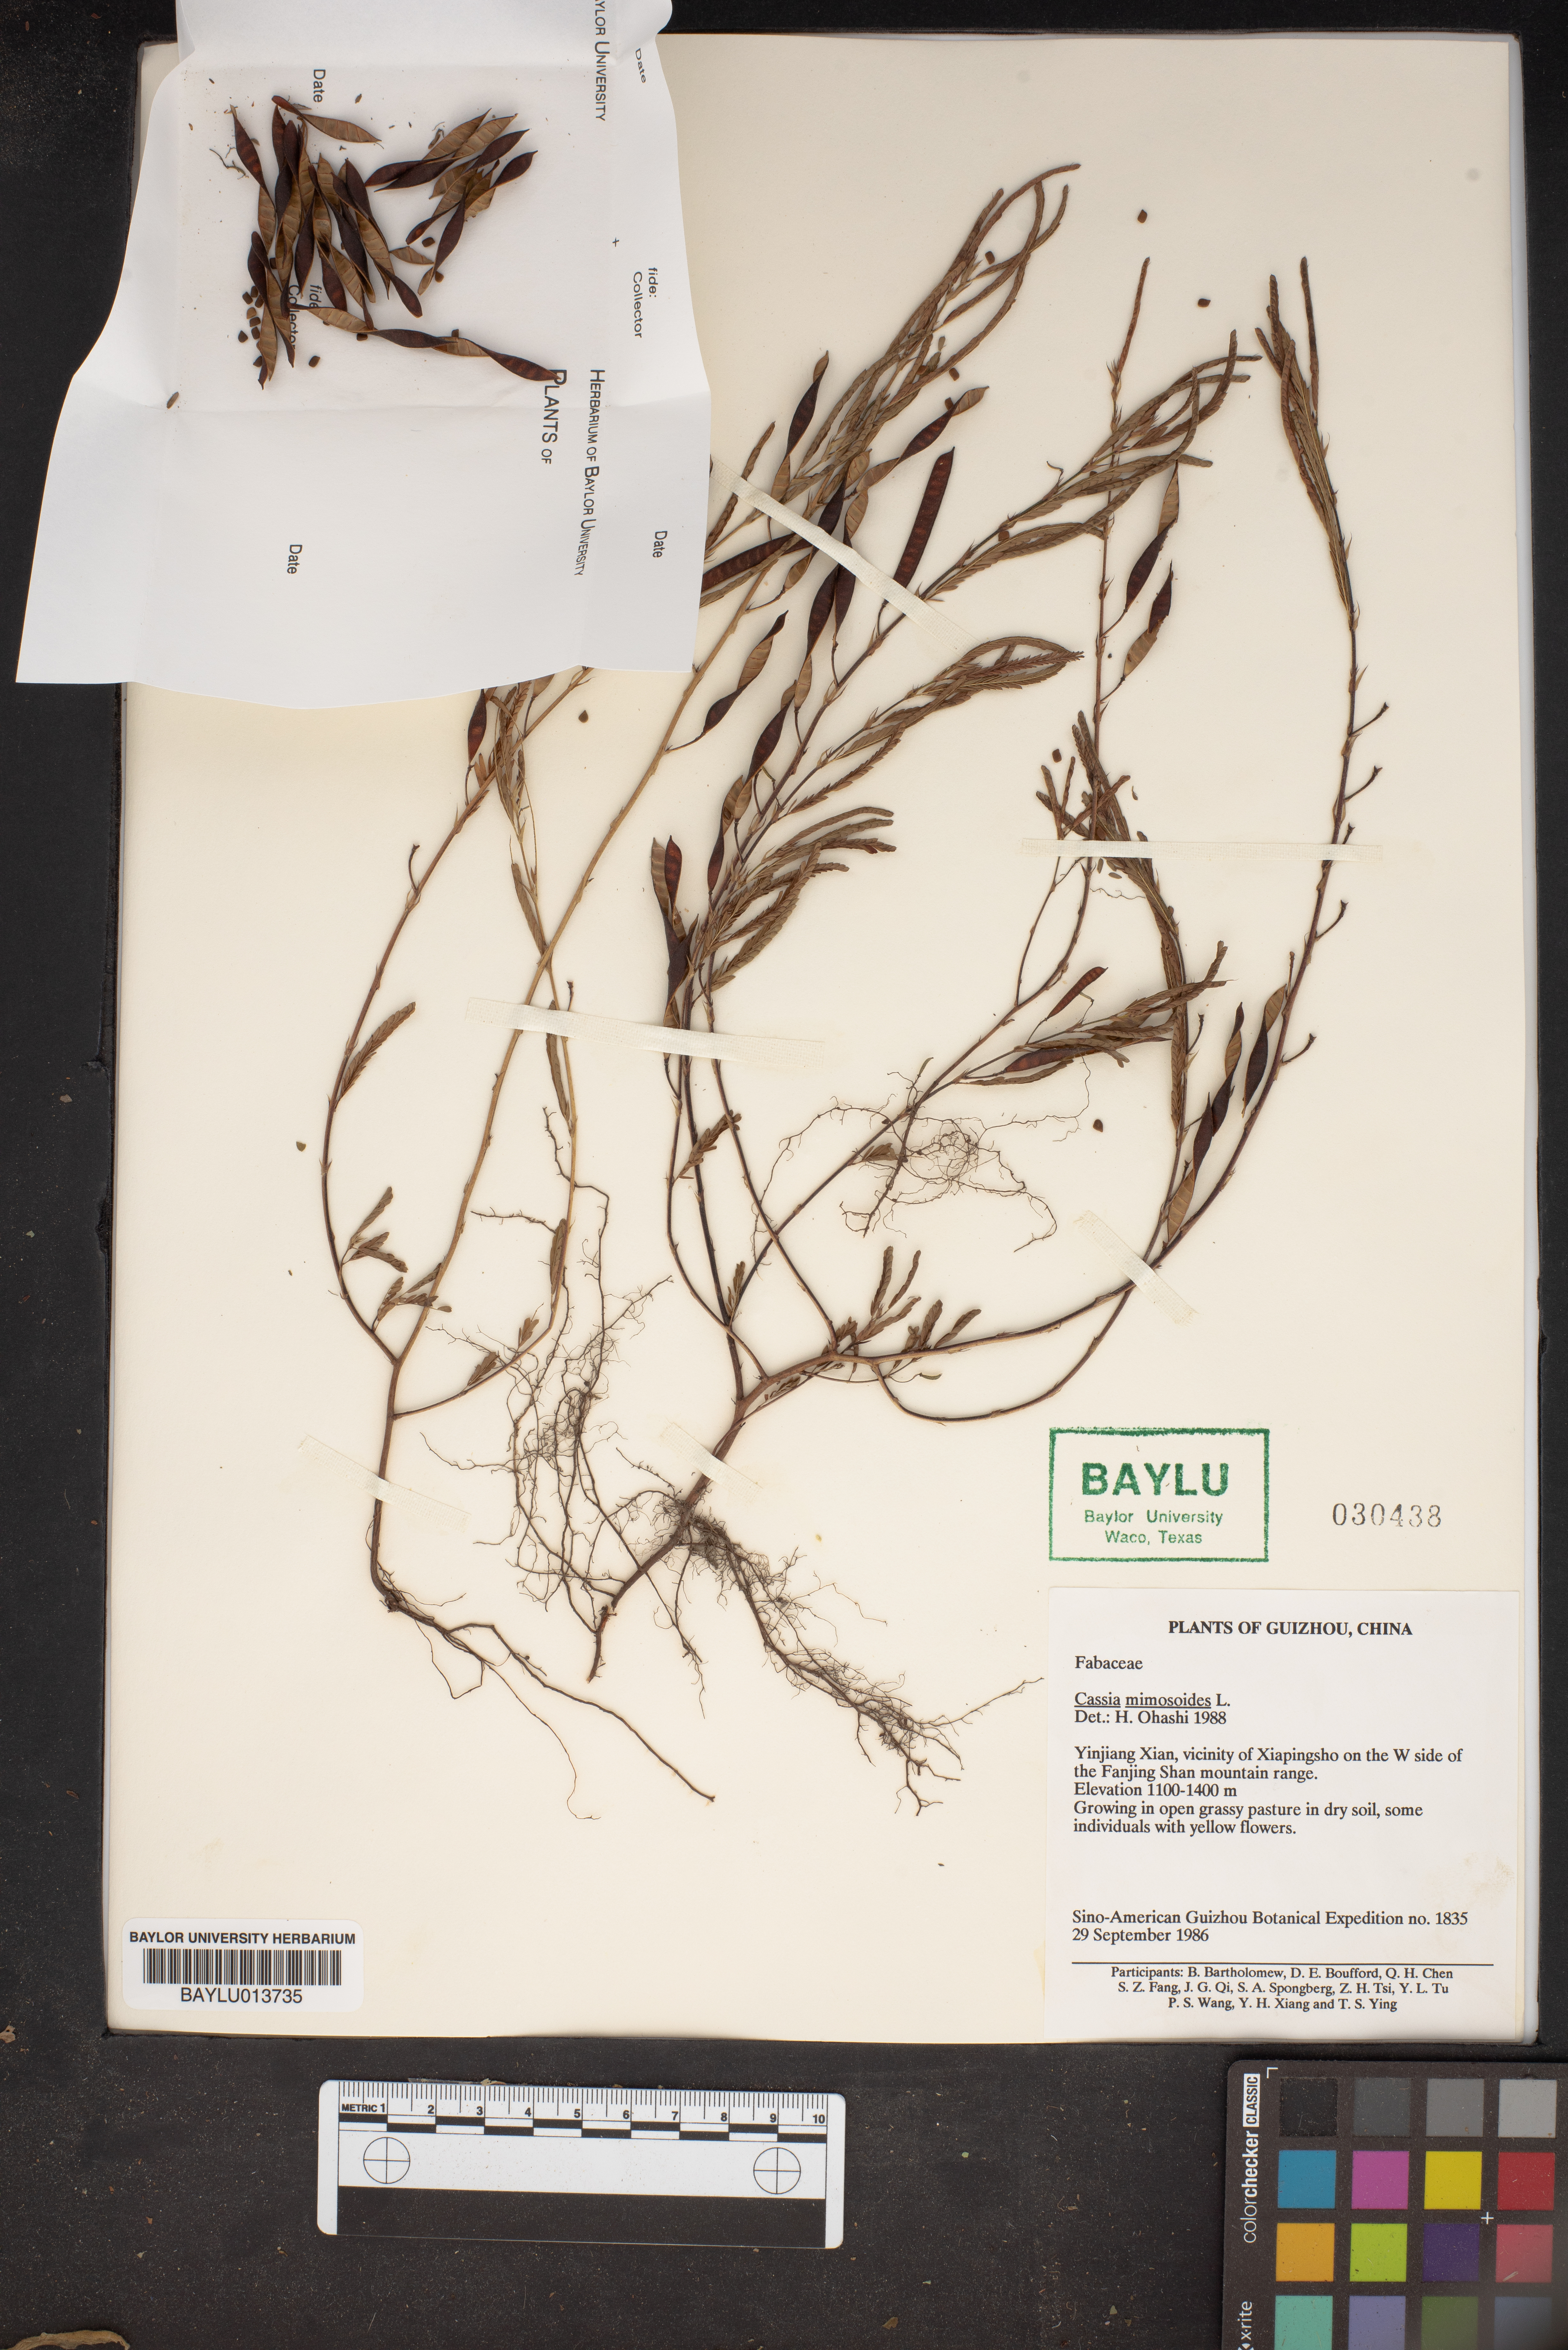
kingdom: Plantae
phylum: Tracheophyta
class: Magnoliopsida
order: Fabales
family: Fabaceae
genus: Chamaecrista
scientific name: Chamaecrista mimosoides
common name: Fish-bone cassia
